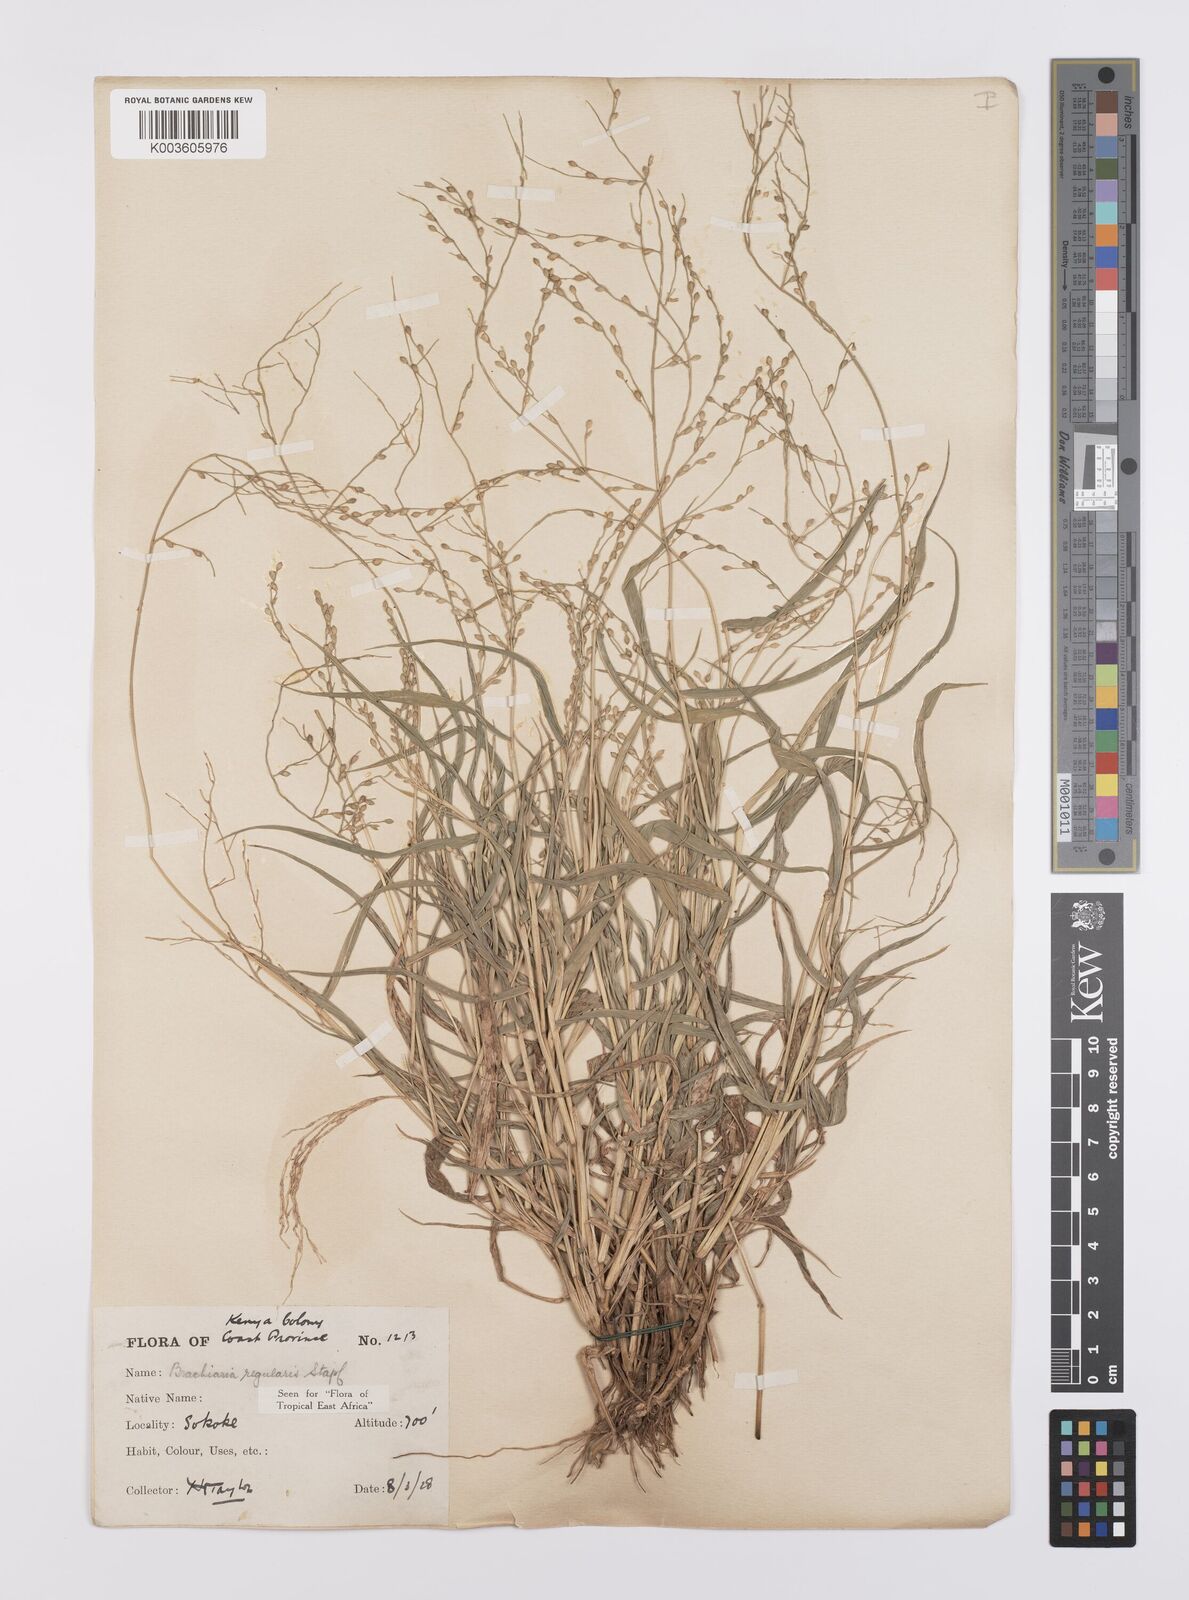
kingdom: Plantae
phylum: Tracheophyta
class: Liliopsida
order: Poales
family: Poaceae
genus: Urochloa
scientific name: Urochloa deflexa
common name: Guinea millet
